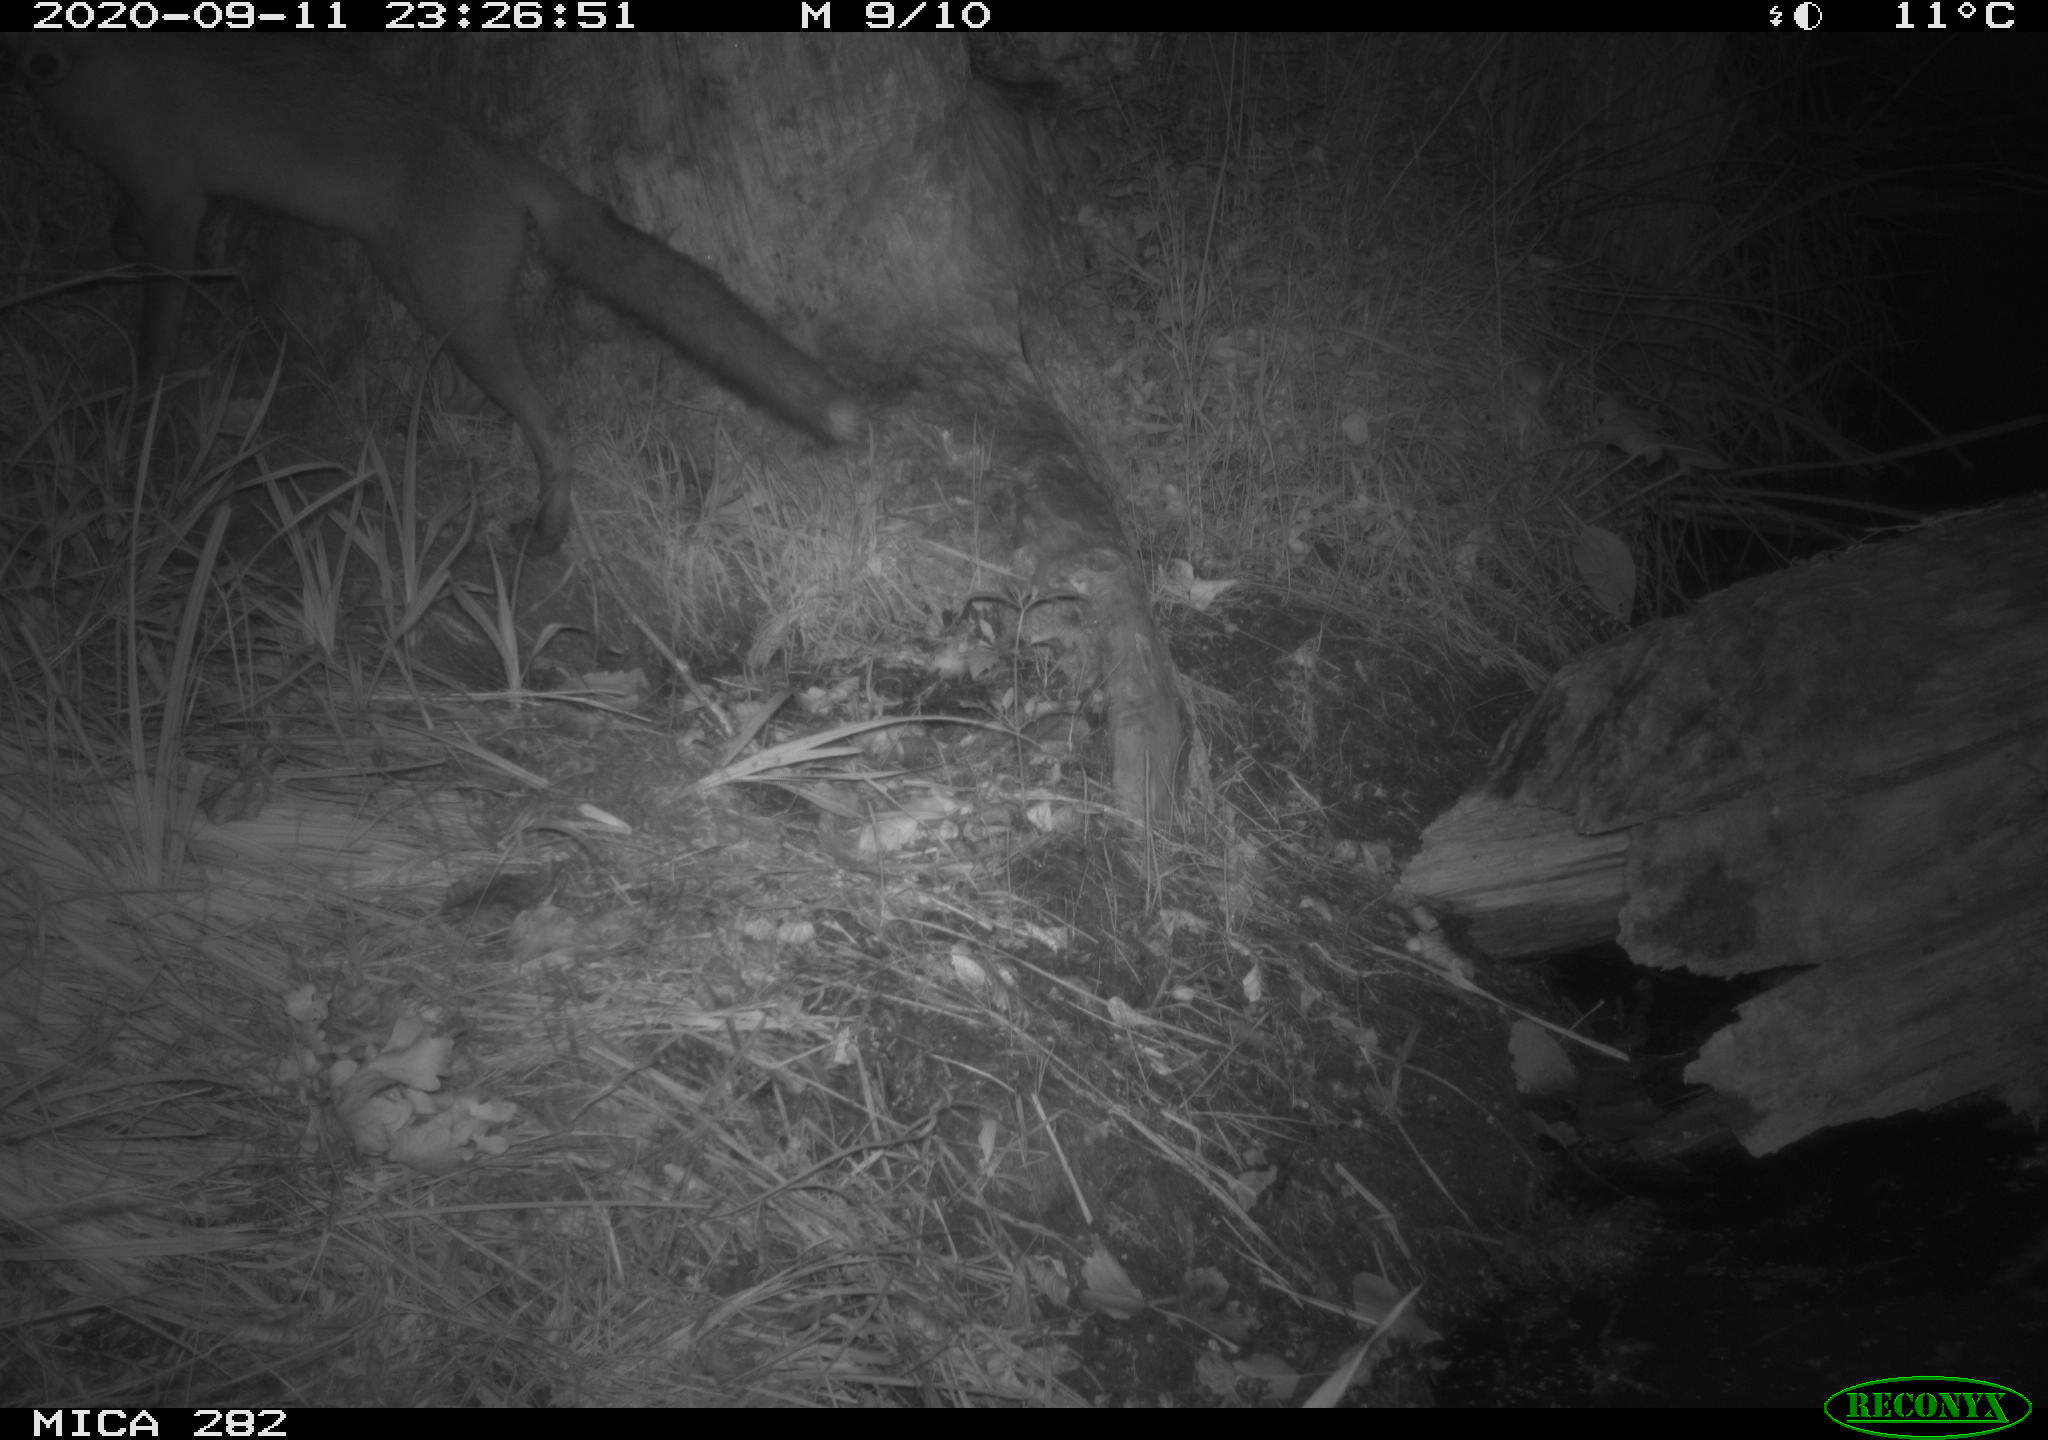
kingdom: Animalia
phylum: Chordata
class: Mammalia
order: Carnivora
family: Canidae
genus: Vulpes
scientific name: Vulpes vulpes
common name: Red fox
